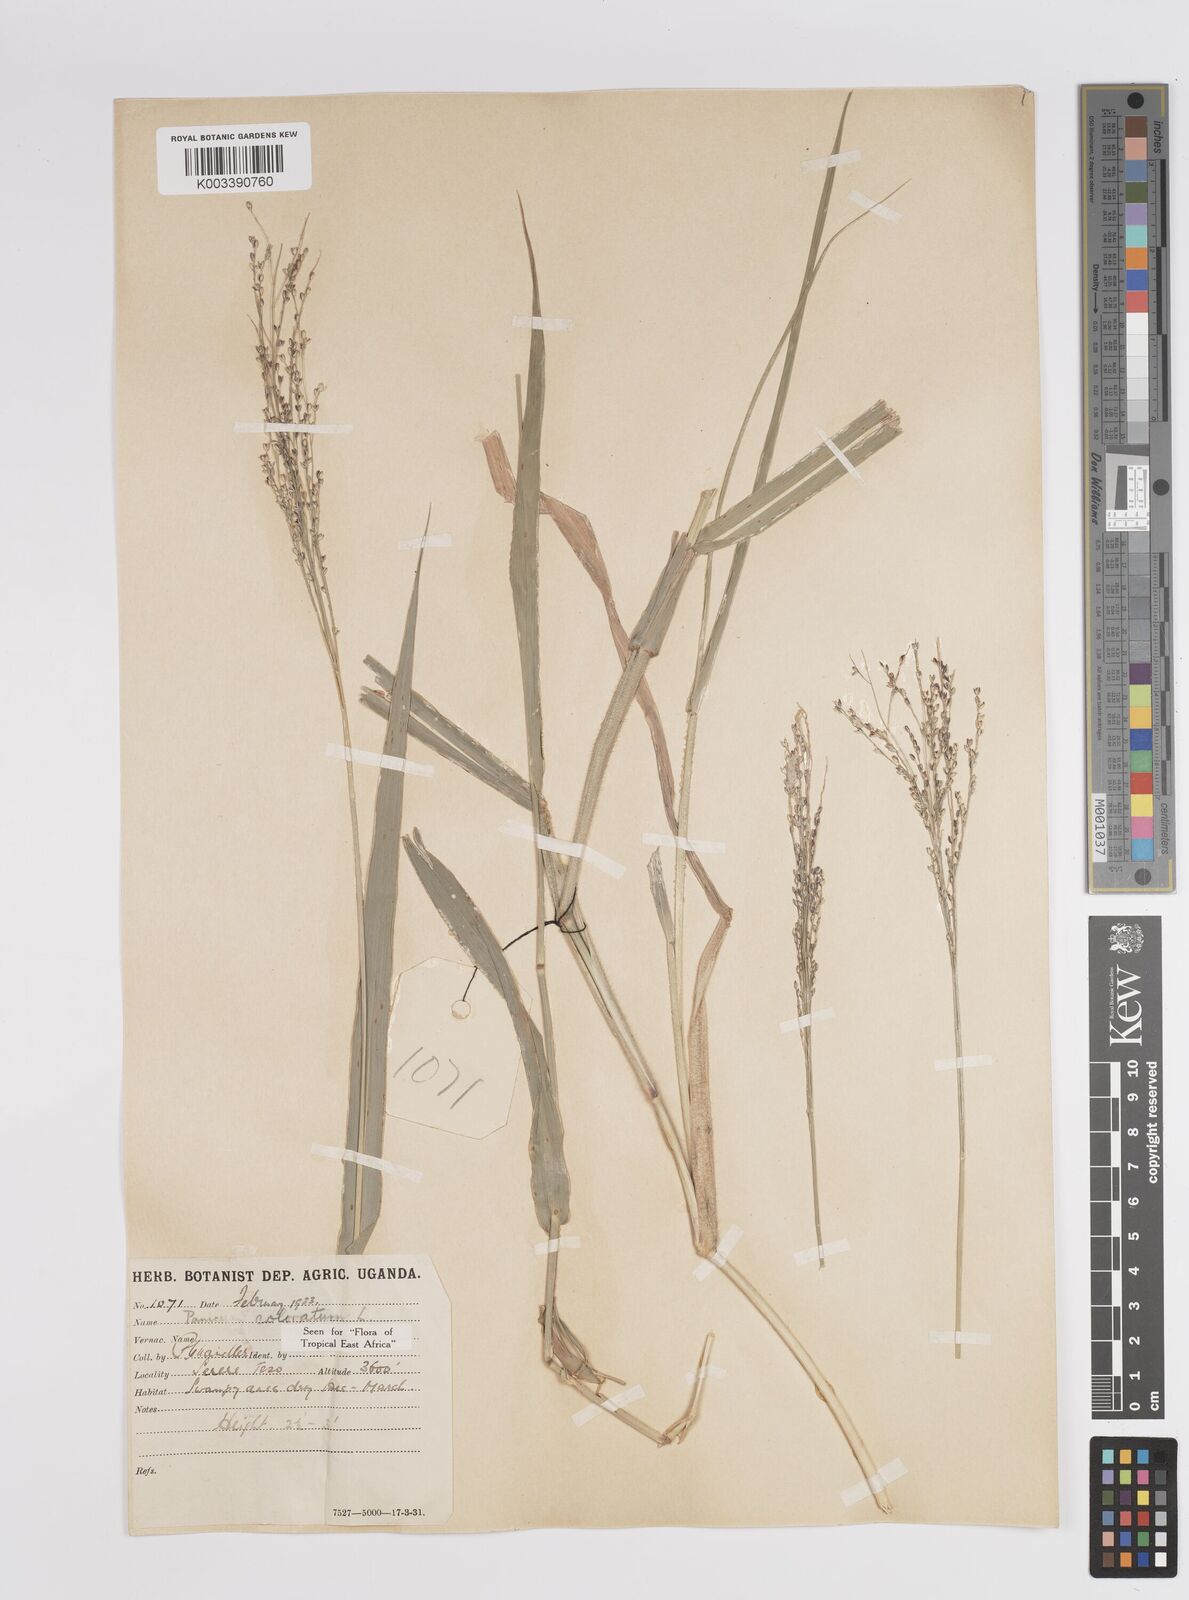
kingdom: Plantae
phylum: Tracheophyta
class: Liliopsida
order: Poales
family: Poaceae
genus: Panicum
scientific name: Panicum coloratum
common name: Kleingrass
